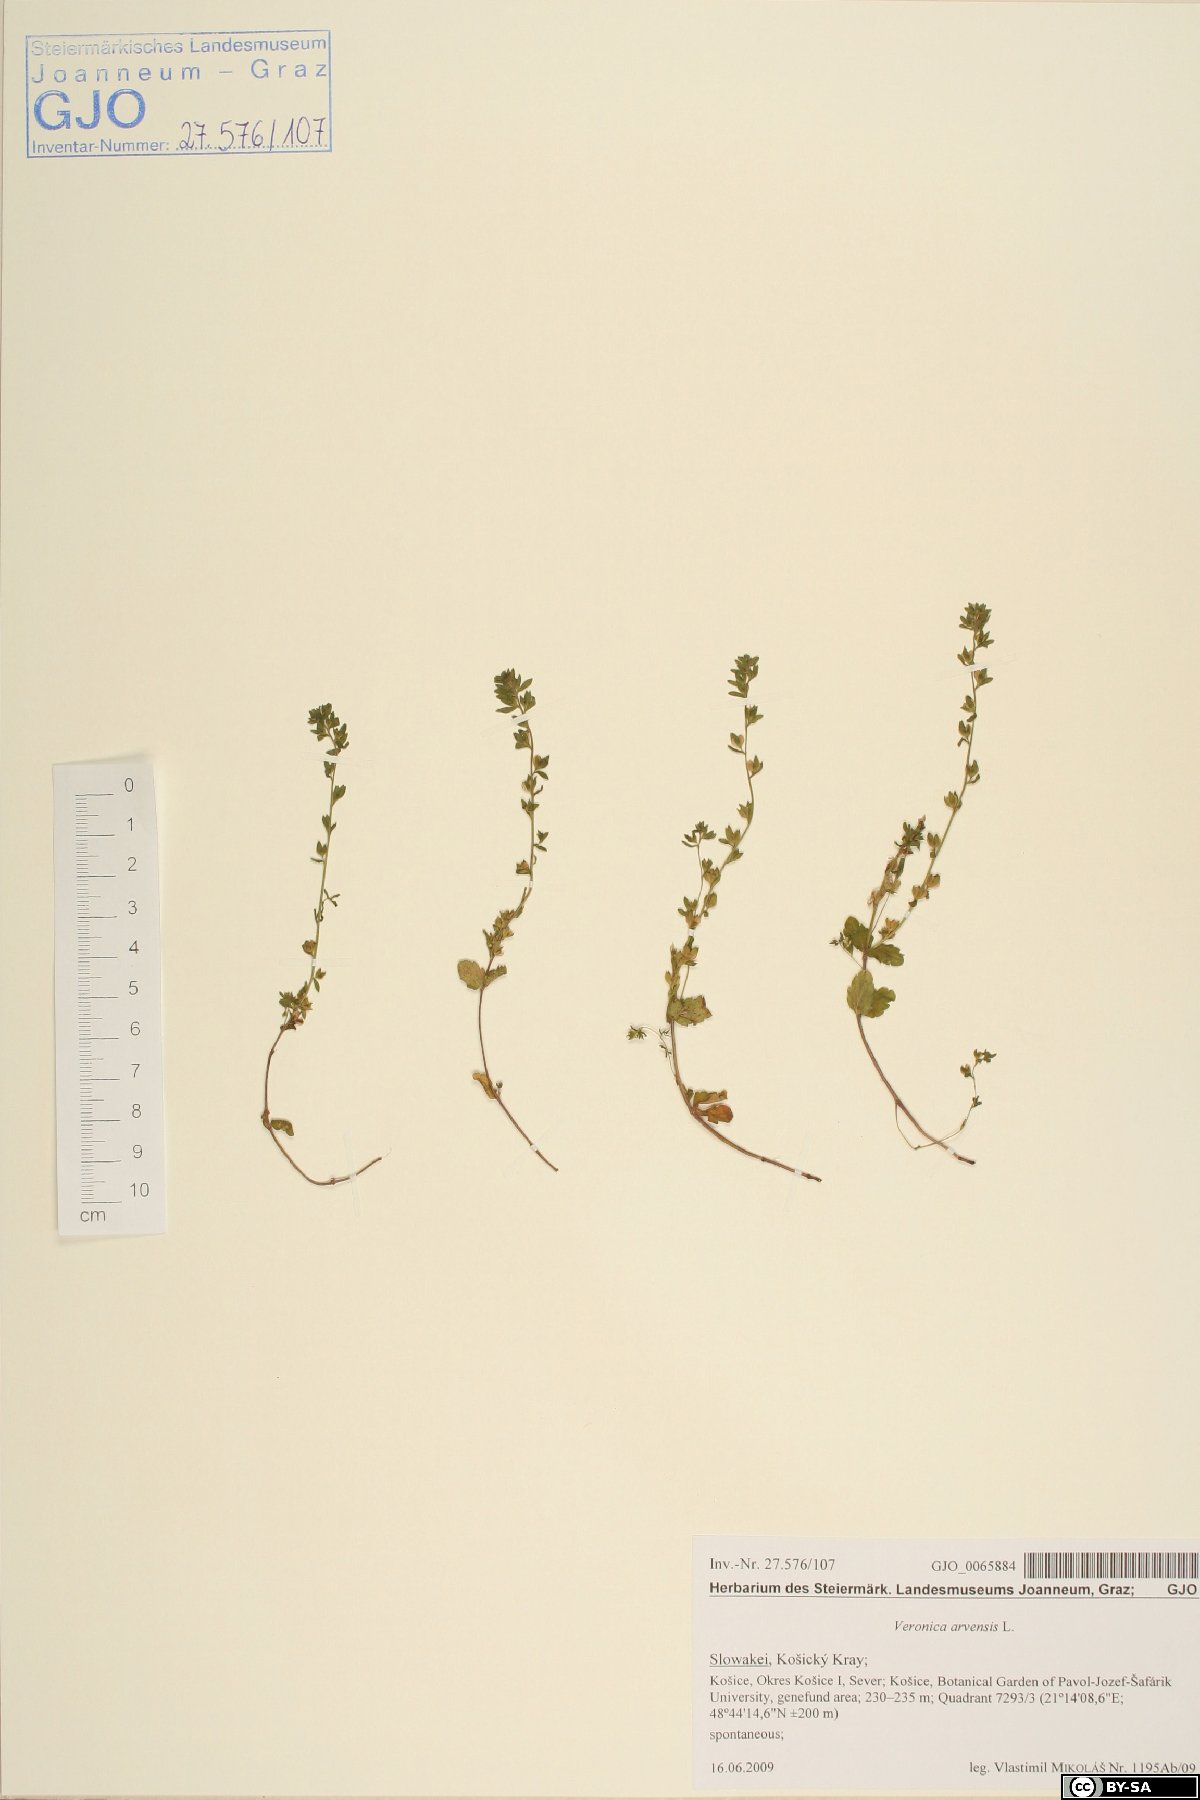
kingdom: Plantae
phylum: Tracheophyta
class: Magnoliopsida
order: Lamiales
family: Plantaginaceae
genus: Veronica
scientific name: Veronica arvensis
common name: Corn speedwell
